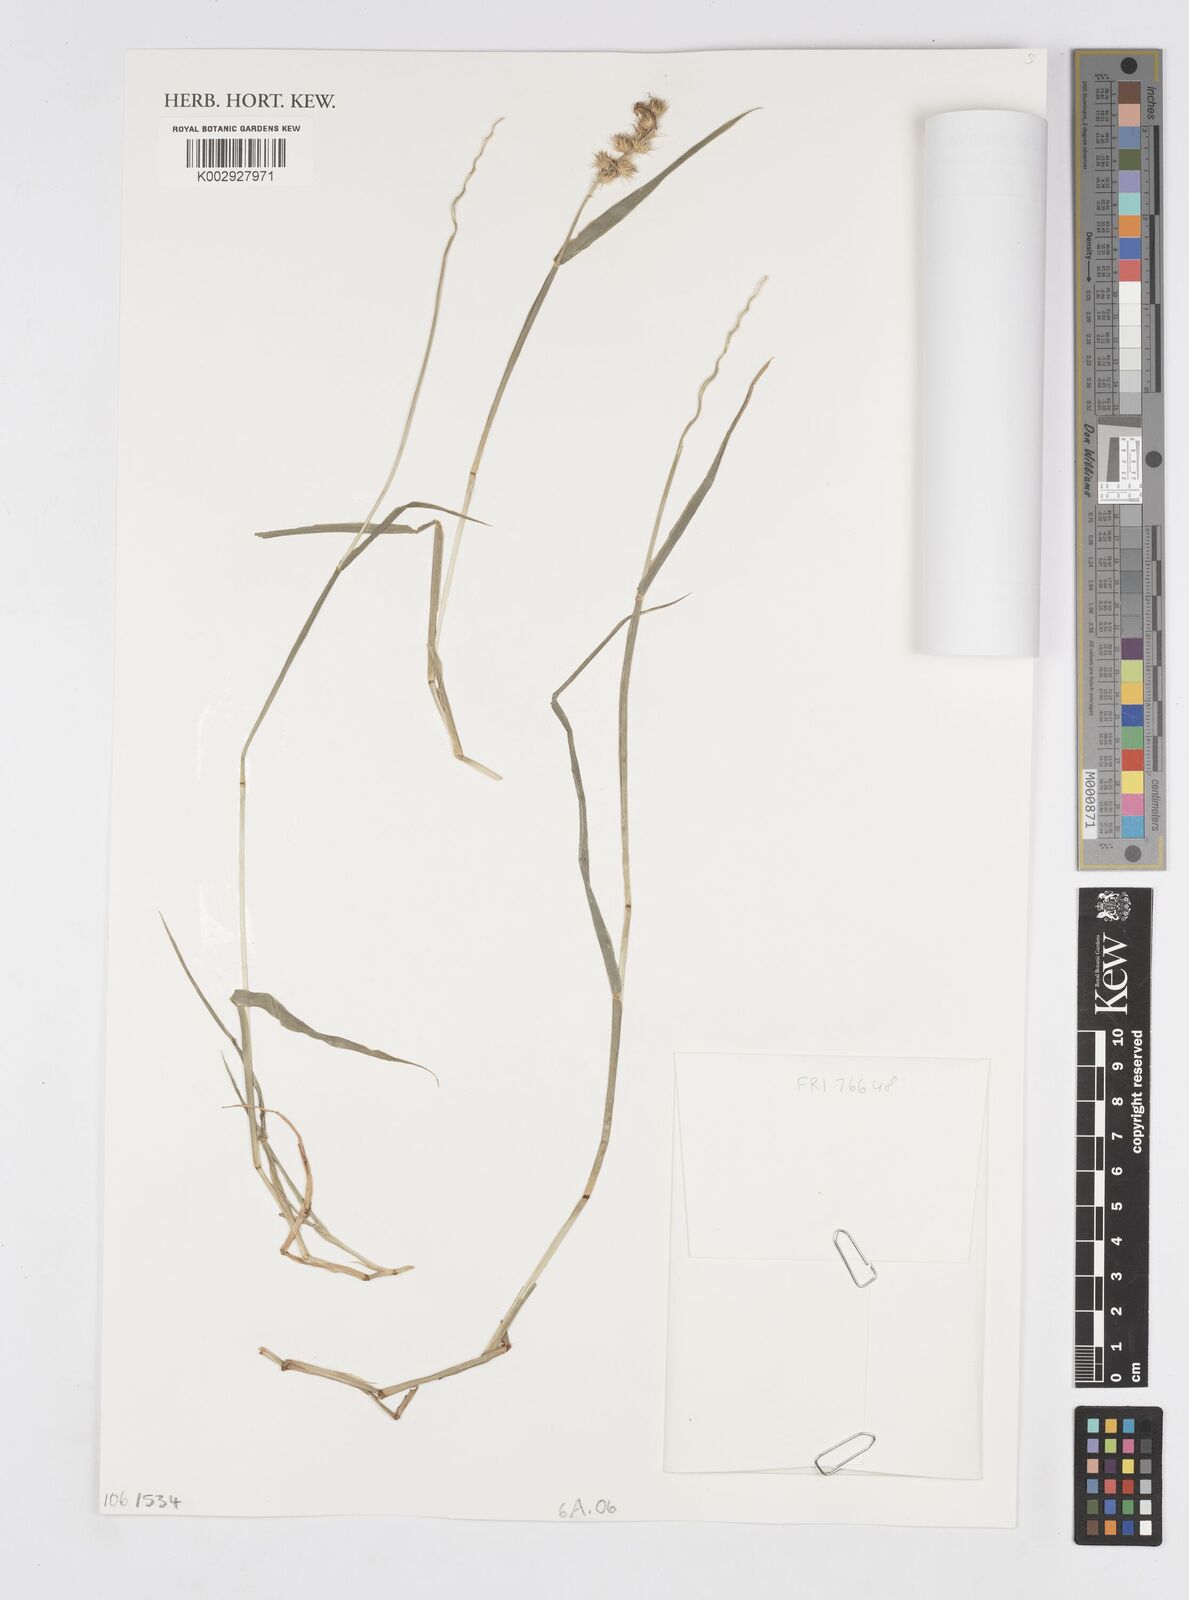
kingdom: Plantae
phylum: Tracheophyta
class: Liliopsida
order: Poales
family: Poaceae
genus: Cenchrus
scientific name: Cenchrus echinatus
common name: Southern sandbur
